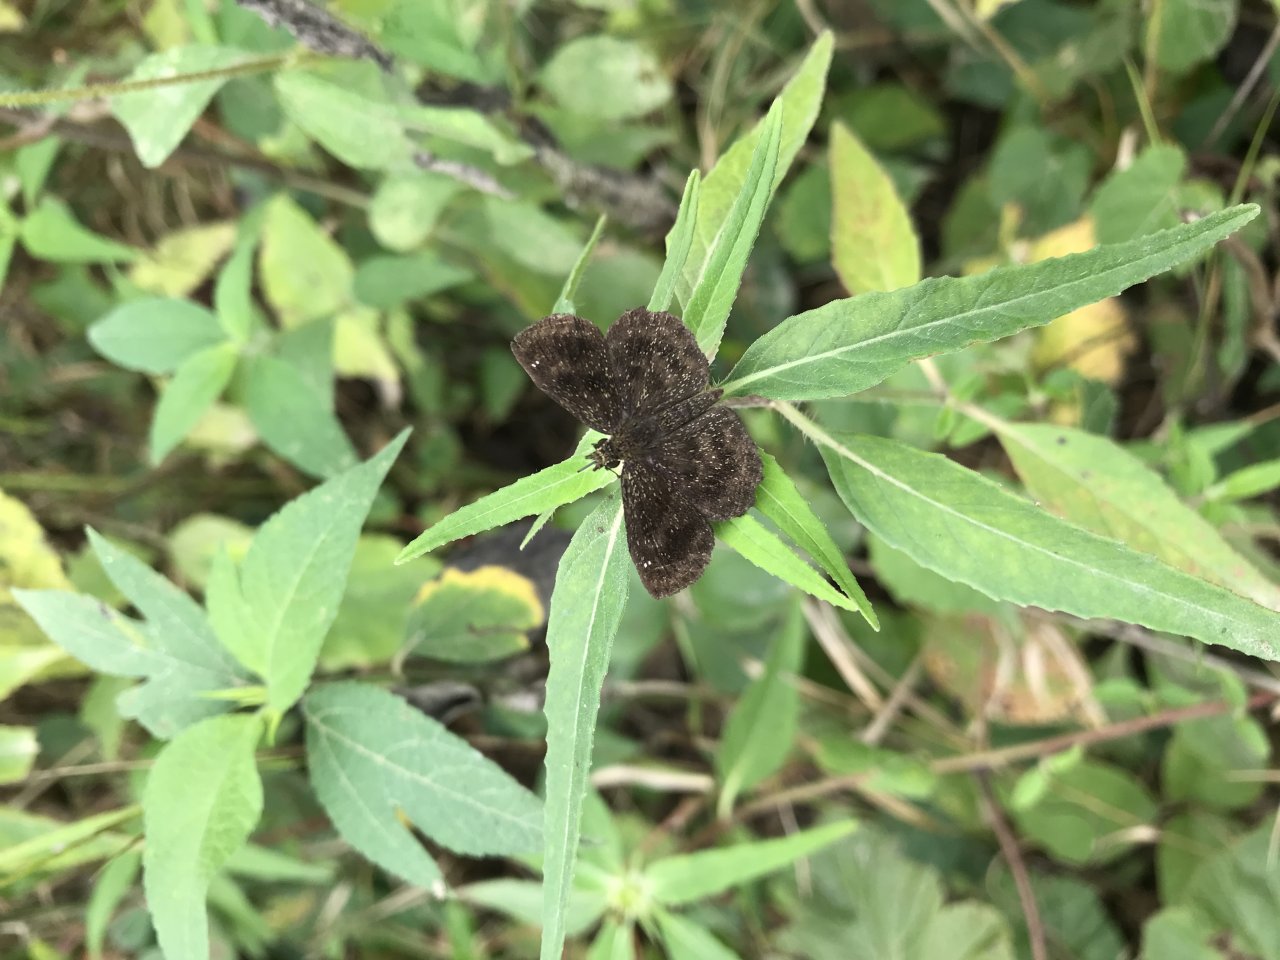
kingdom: Animalia
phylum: Arthropoda
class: Insecta
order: Lepidoptera
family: Hesperiidae
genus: Staphylus
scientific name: Staphylus mazans
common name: Hayhurst's Scallopwing
